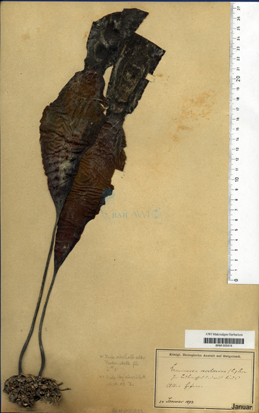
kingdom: Chromista
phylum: Ochrophyta
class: Phaeophyceae
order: Laminariales
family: Laminariaceae
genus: Saccharina
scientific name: Saccharina latissima
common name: Poor man's weather glass
